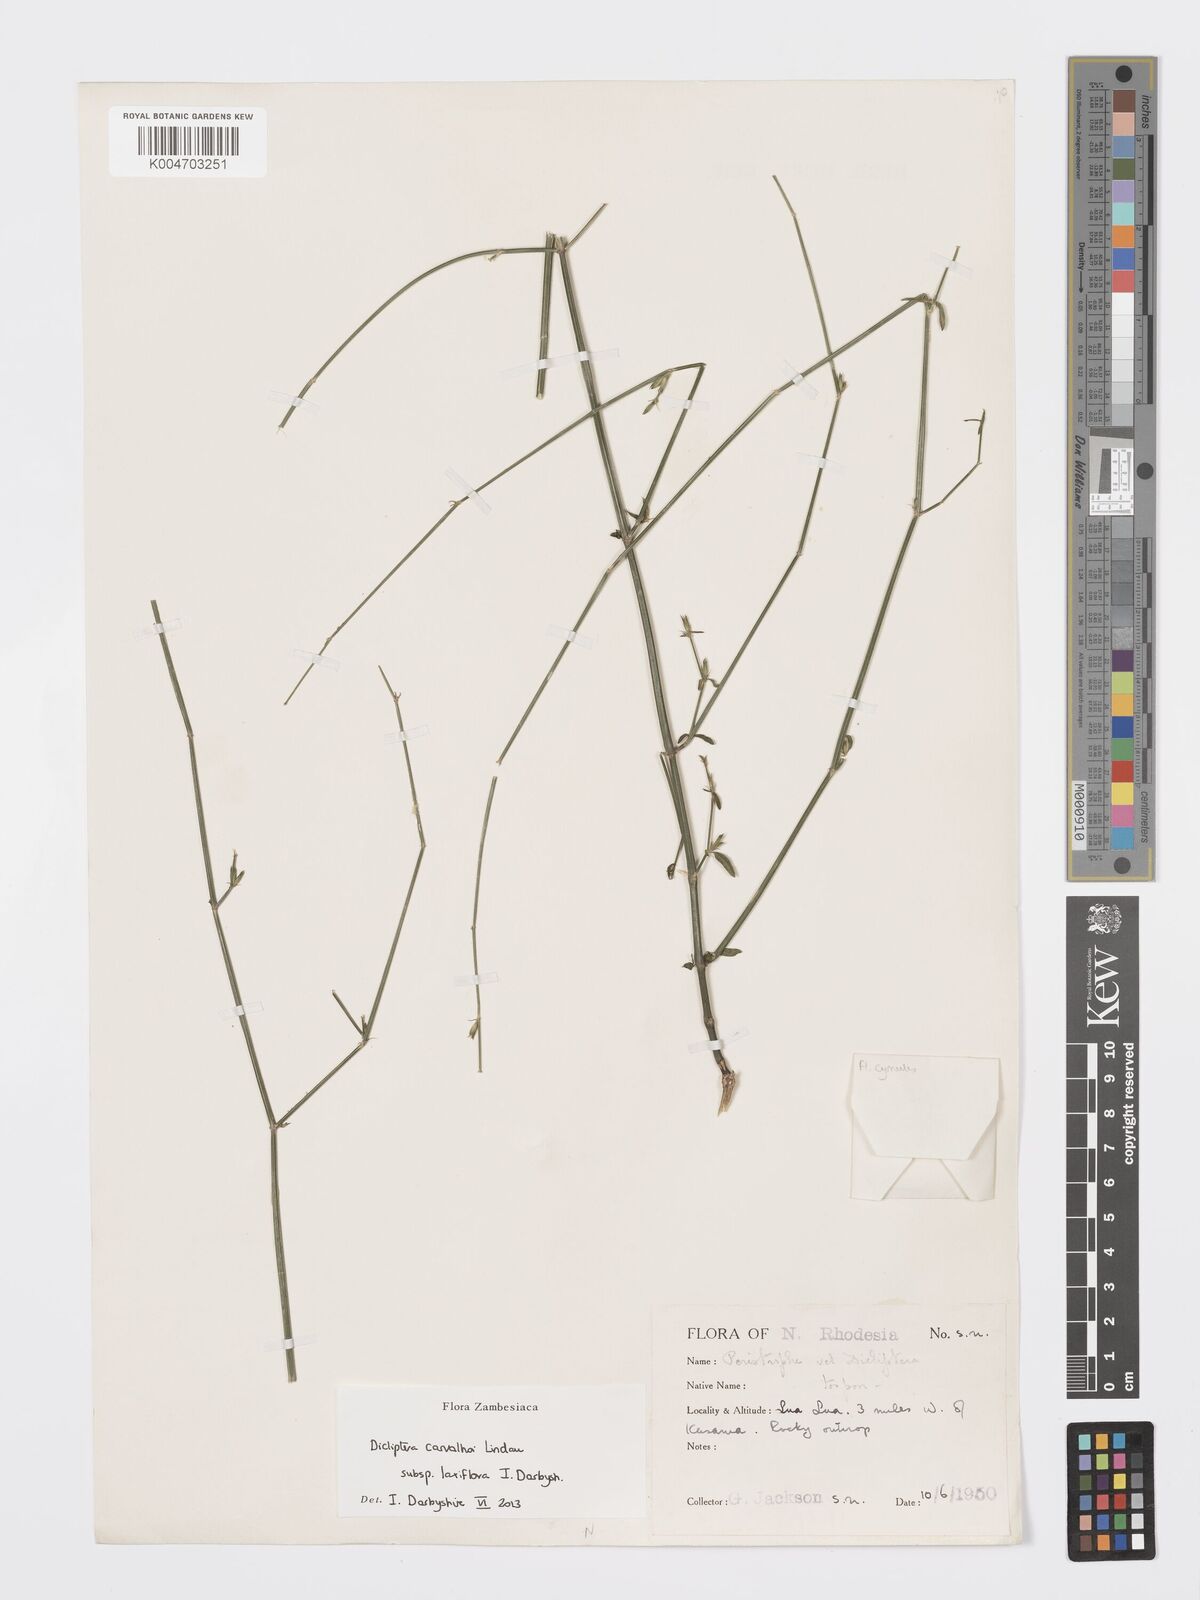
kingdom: Plantae
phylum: Tracheophyta
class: Magnoliopsida
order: Lamiales
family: Acanthaceae
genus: Dicliptera
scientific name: Dicliptera carvalhoi
